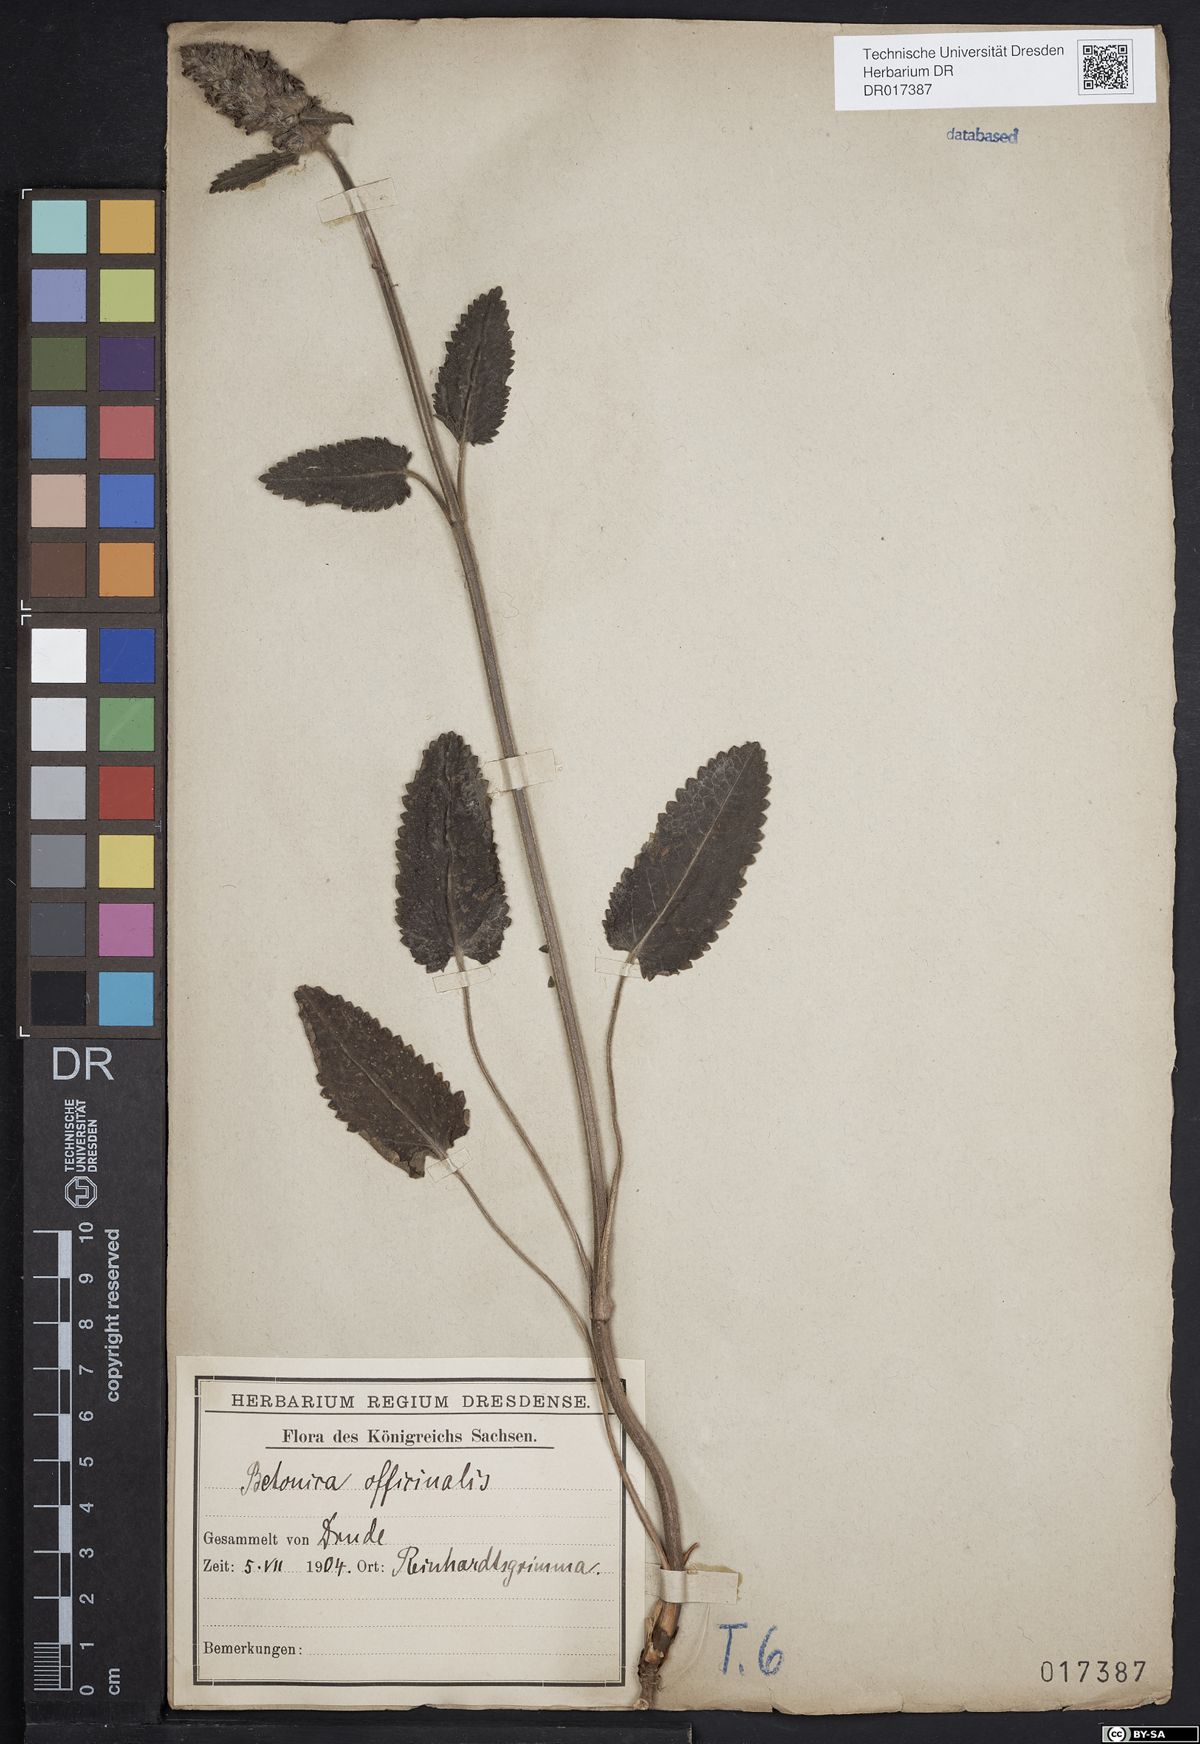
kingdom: Plantae
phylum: Tracheophyta
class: Magnoliopsida
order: Lamiales
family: Lamiaceae
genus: Betonica
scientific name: Betonica officinalis
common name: Bishop's-wort
